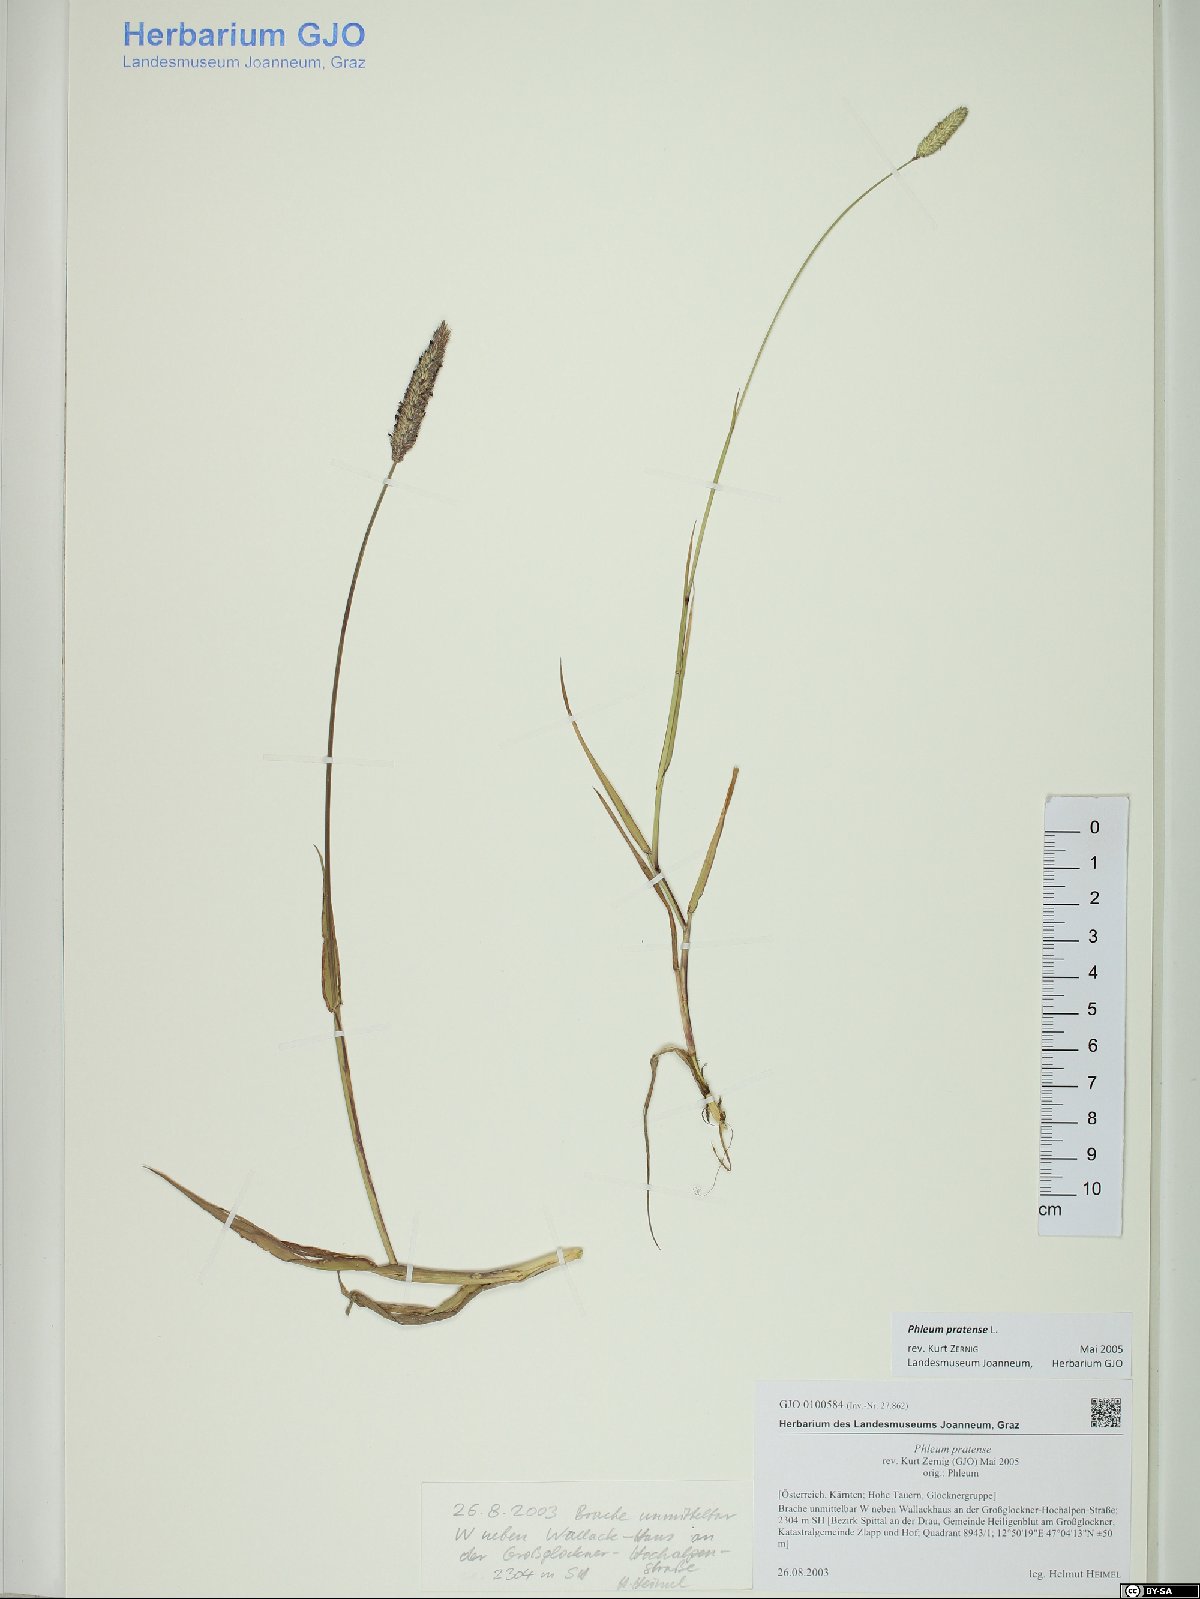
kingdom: Plantae
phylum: Tracheophyta
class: Liliopsida
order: Poales
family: Poaceae
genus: Phleum
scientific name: Phleum pratense
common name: Timothy grass
